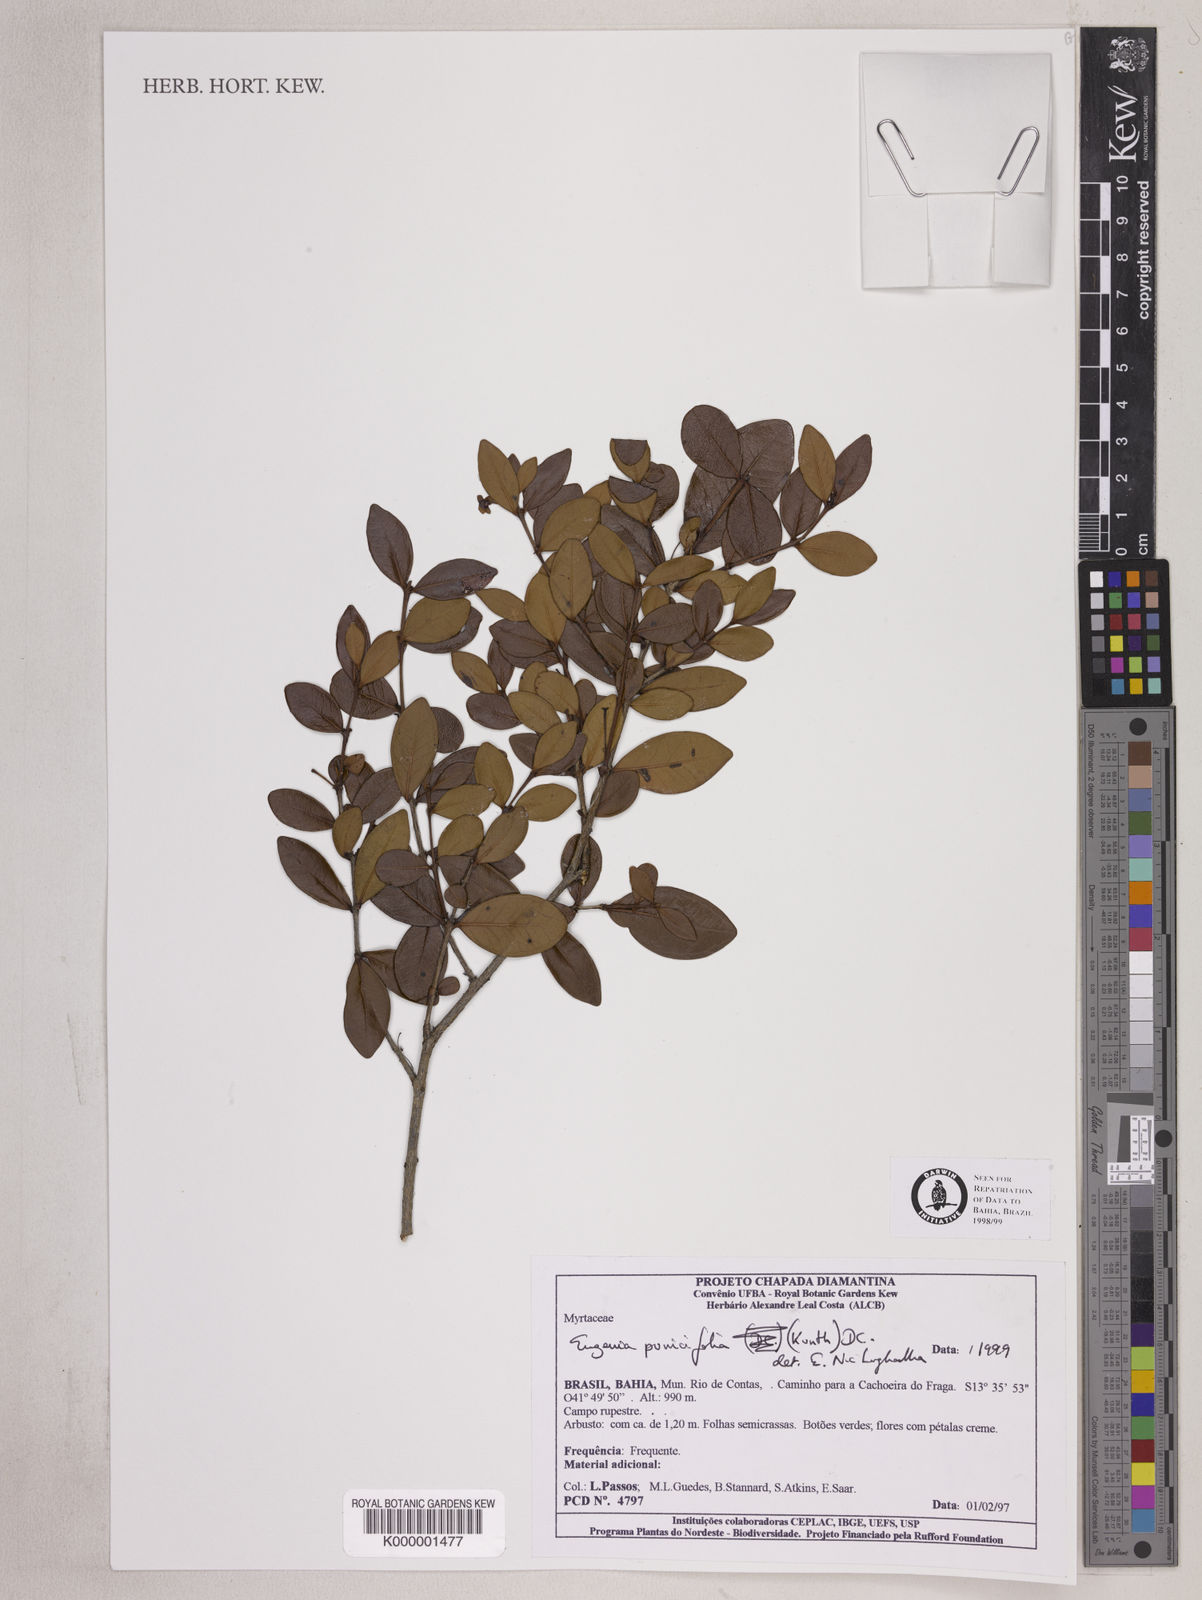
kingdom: Plantae
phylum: Tracheophyta
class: Magnoliopsida
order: Myrtales
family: Myrtaceae
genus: Eugenia
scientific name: Eugenia punicifolia
